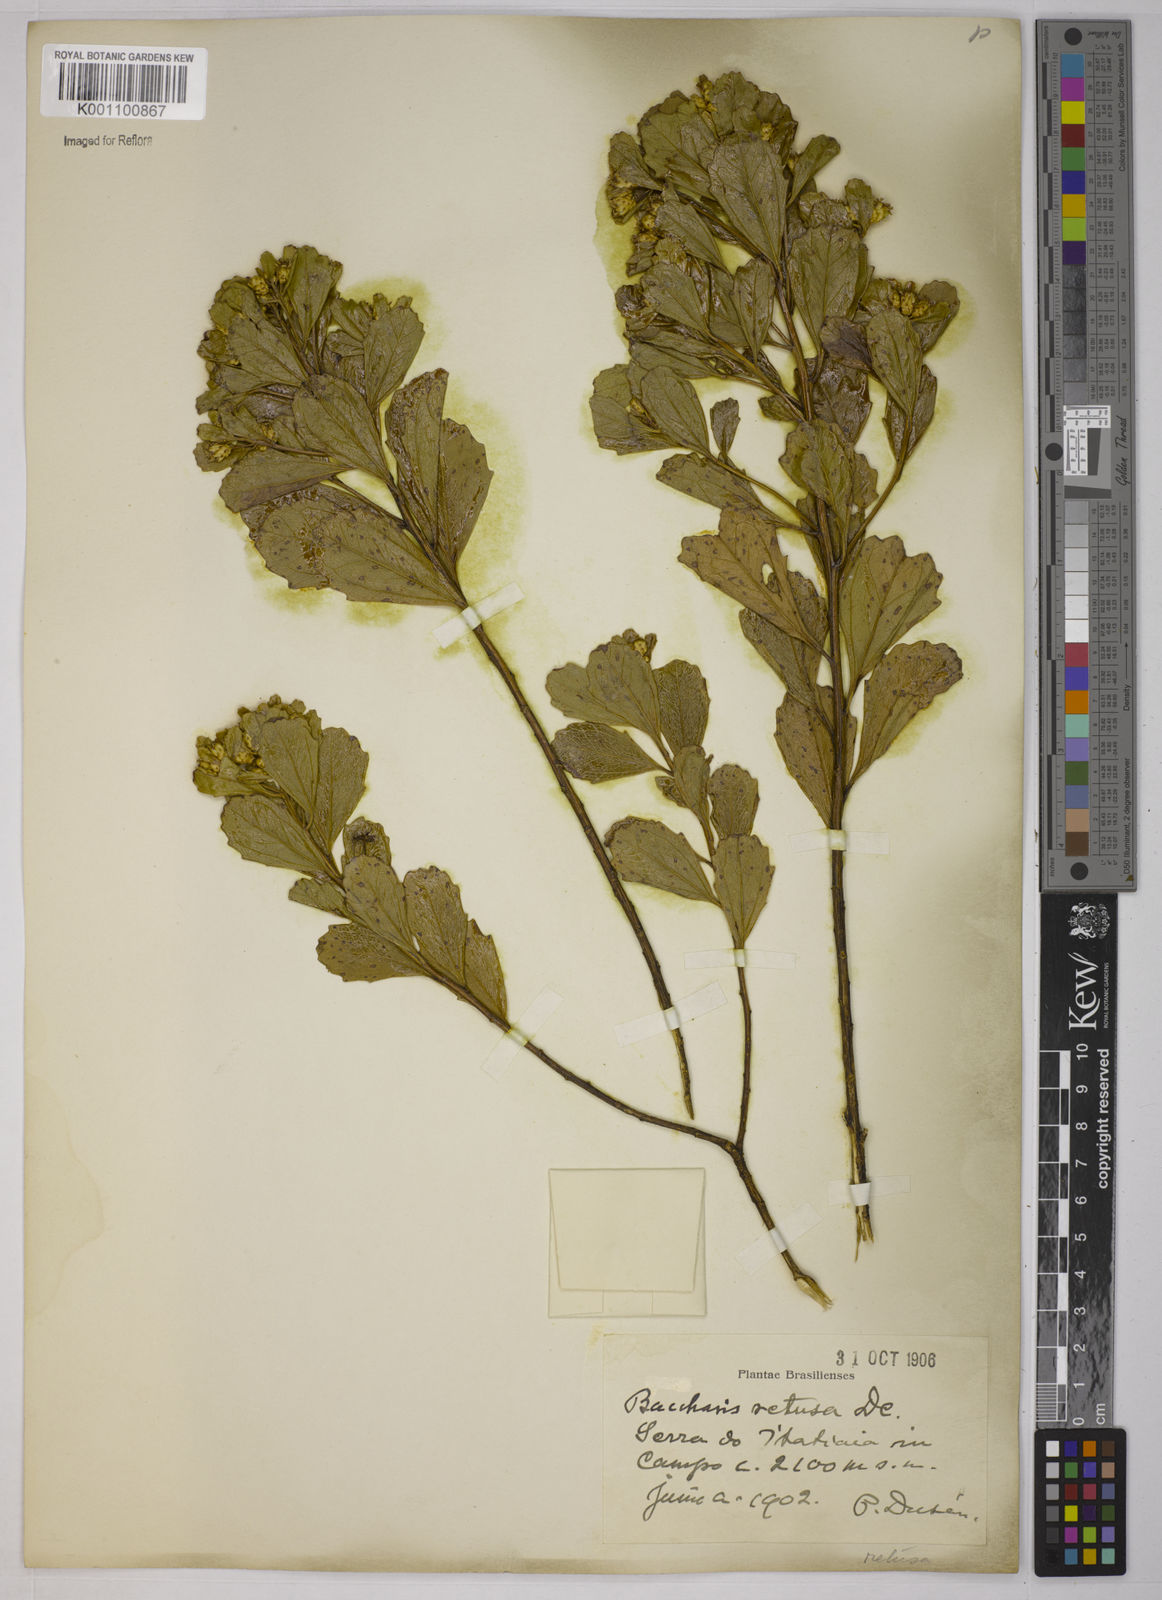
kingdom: Plantae
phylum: Tracheophyta
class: Magnoliopsida
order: Asterales
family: Asteraceae
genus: Baccharis
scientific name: Baccharis retusa
